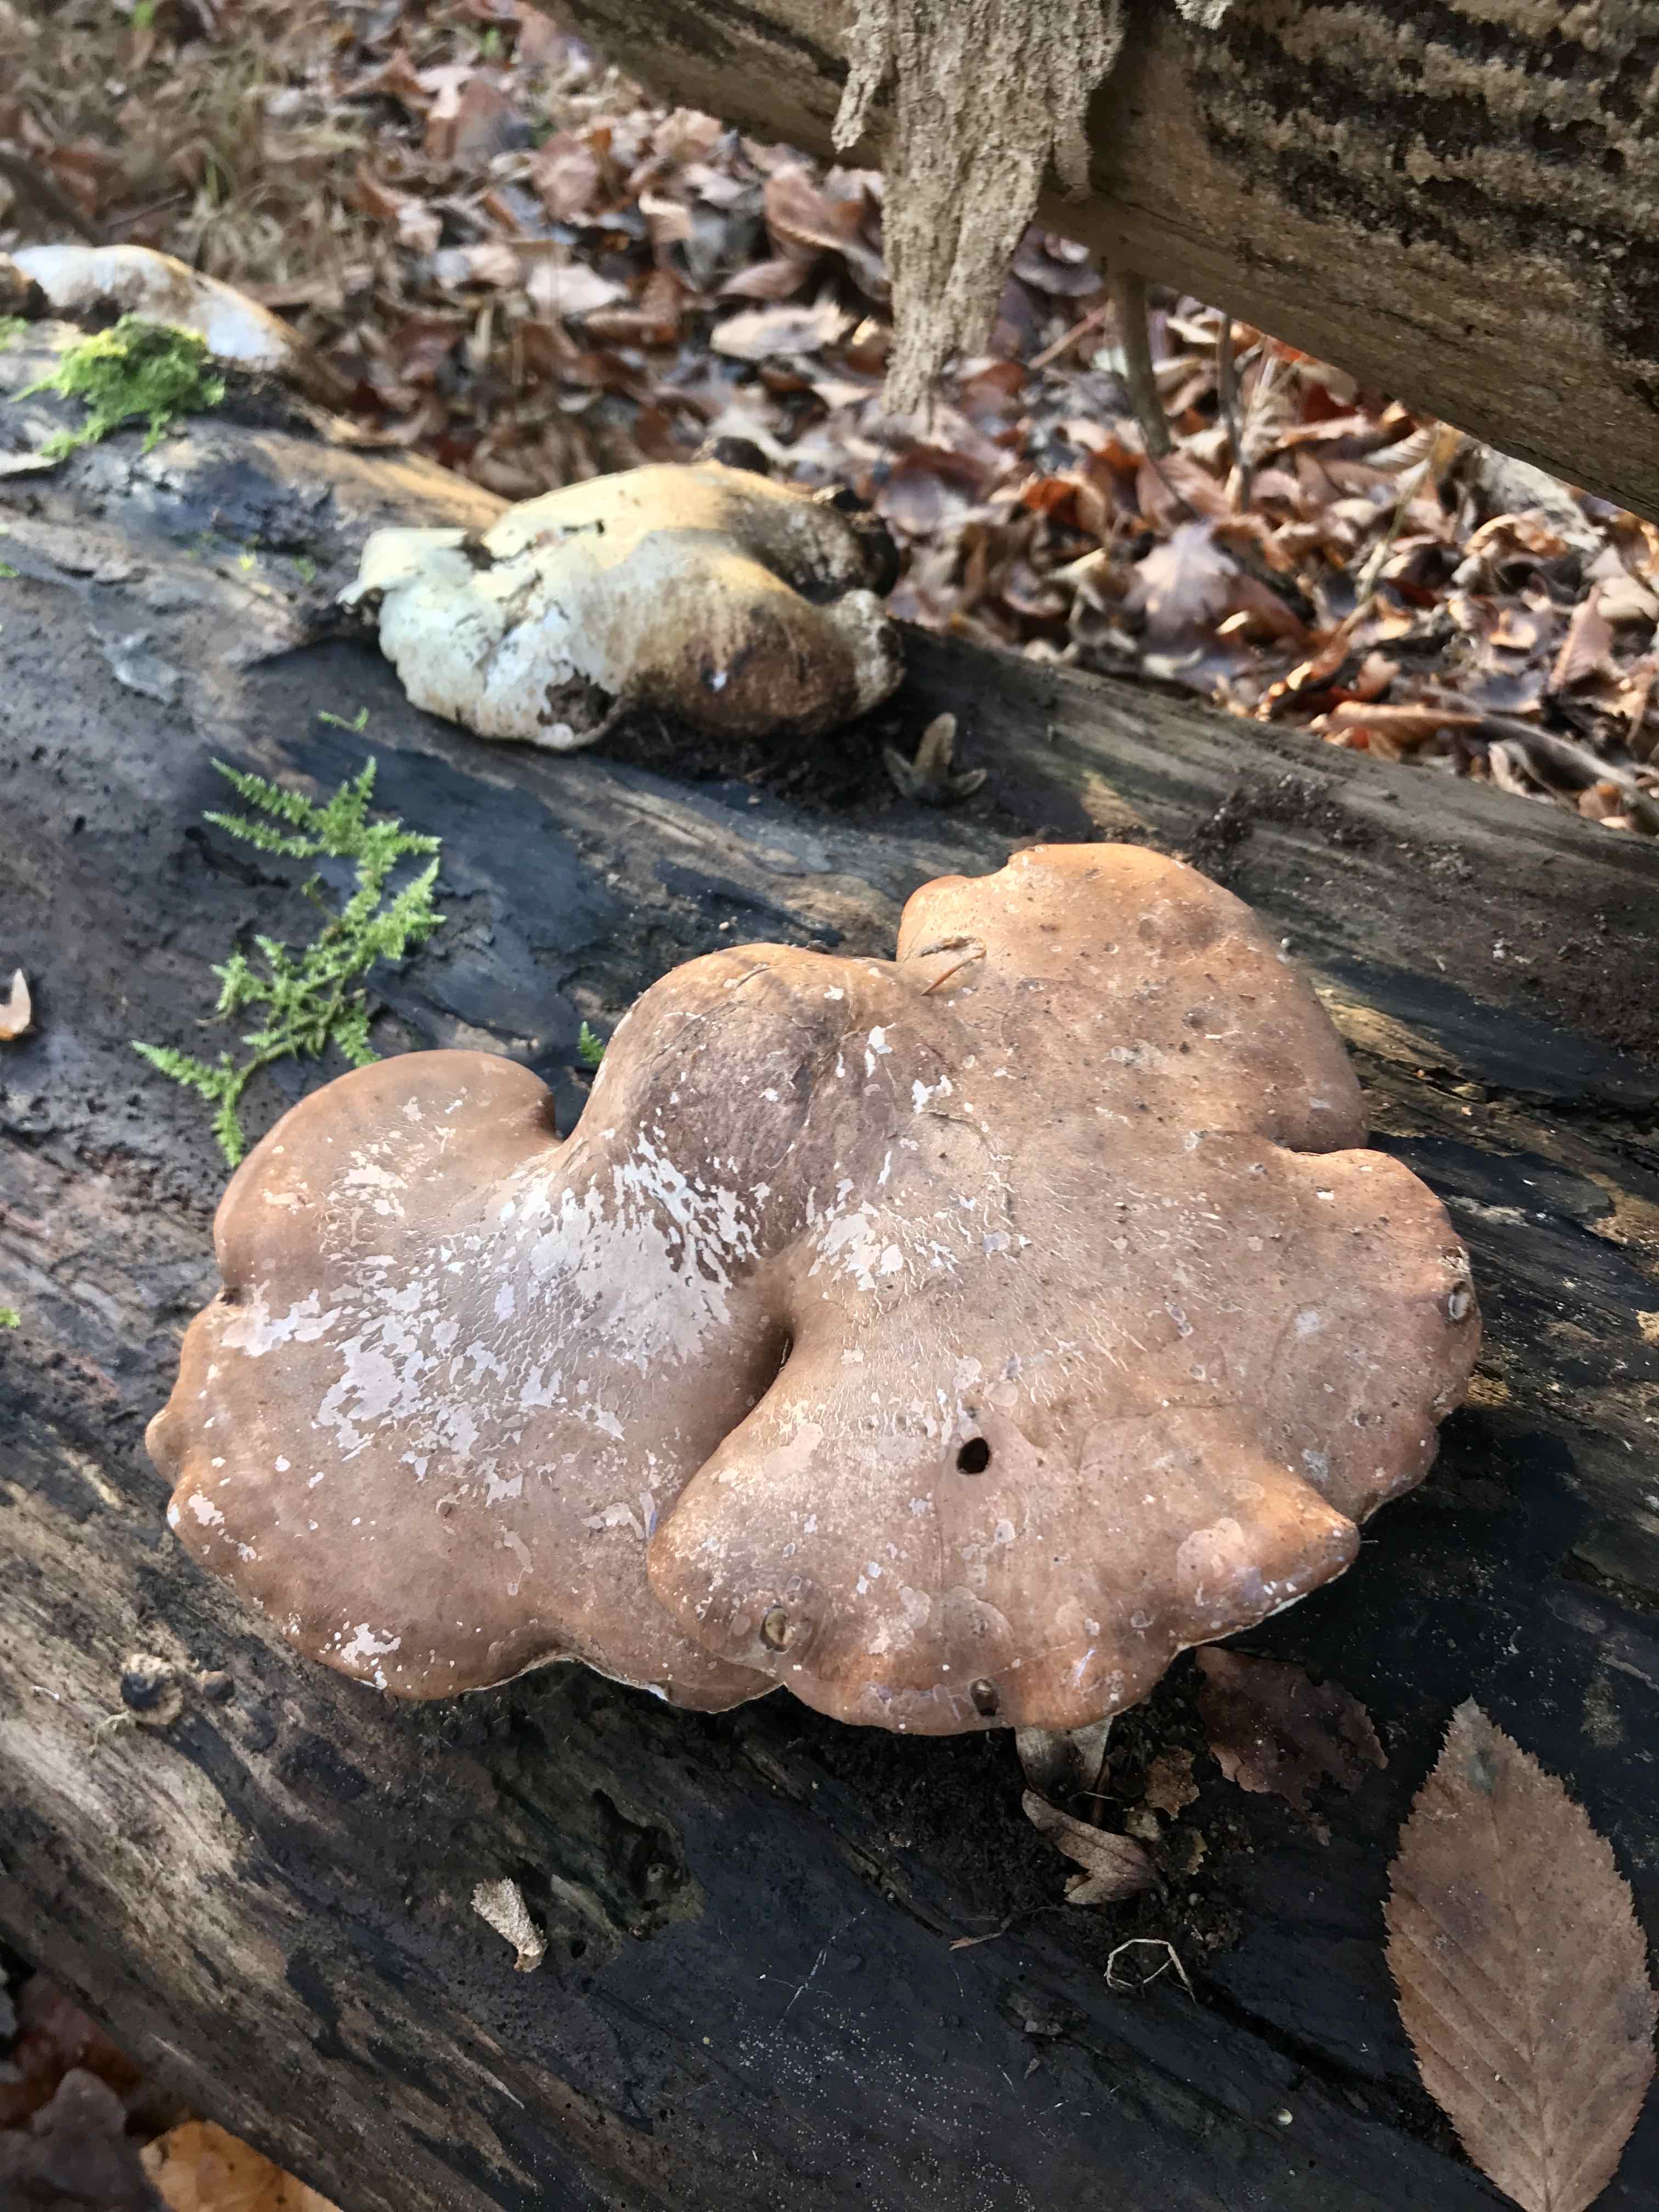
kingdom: Fungi
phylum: Basidiomycota
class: Agaricomycetes
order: Polyporales
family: Fomitopsidaceae
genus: Fomitopsis
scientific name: Fomitopsis betulina
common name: birkeporesvamp
